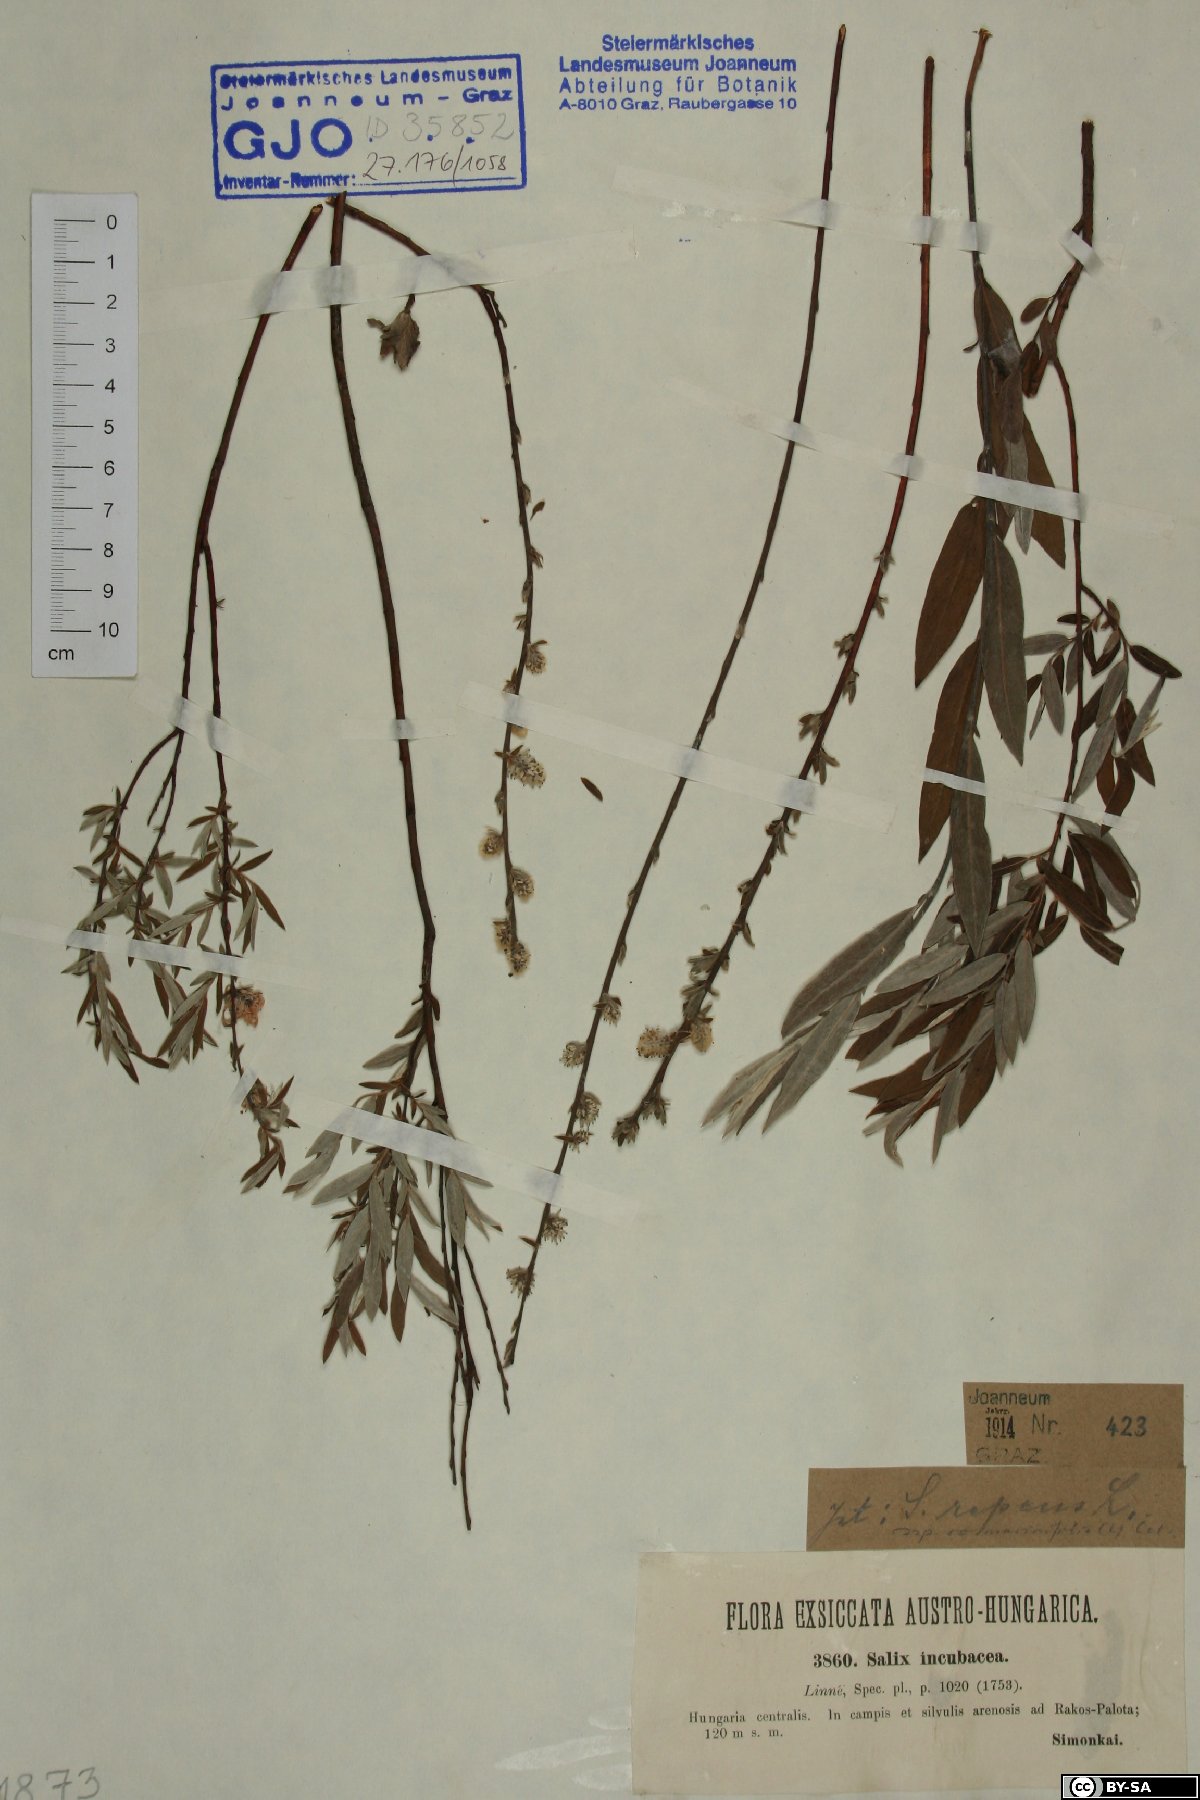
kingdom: Plantae
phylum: Tracheophyta
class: Magnoliopsida
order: Malpighiales
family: Salicaceae
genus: Salix
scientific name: Salix repens
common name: Creeping willow
